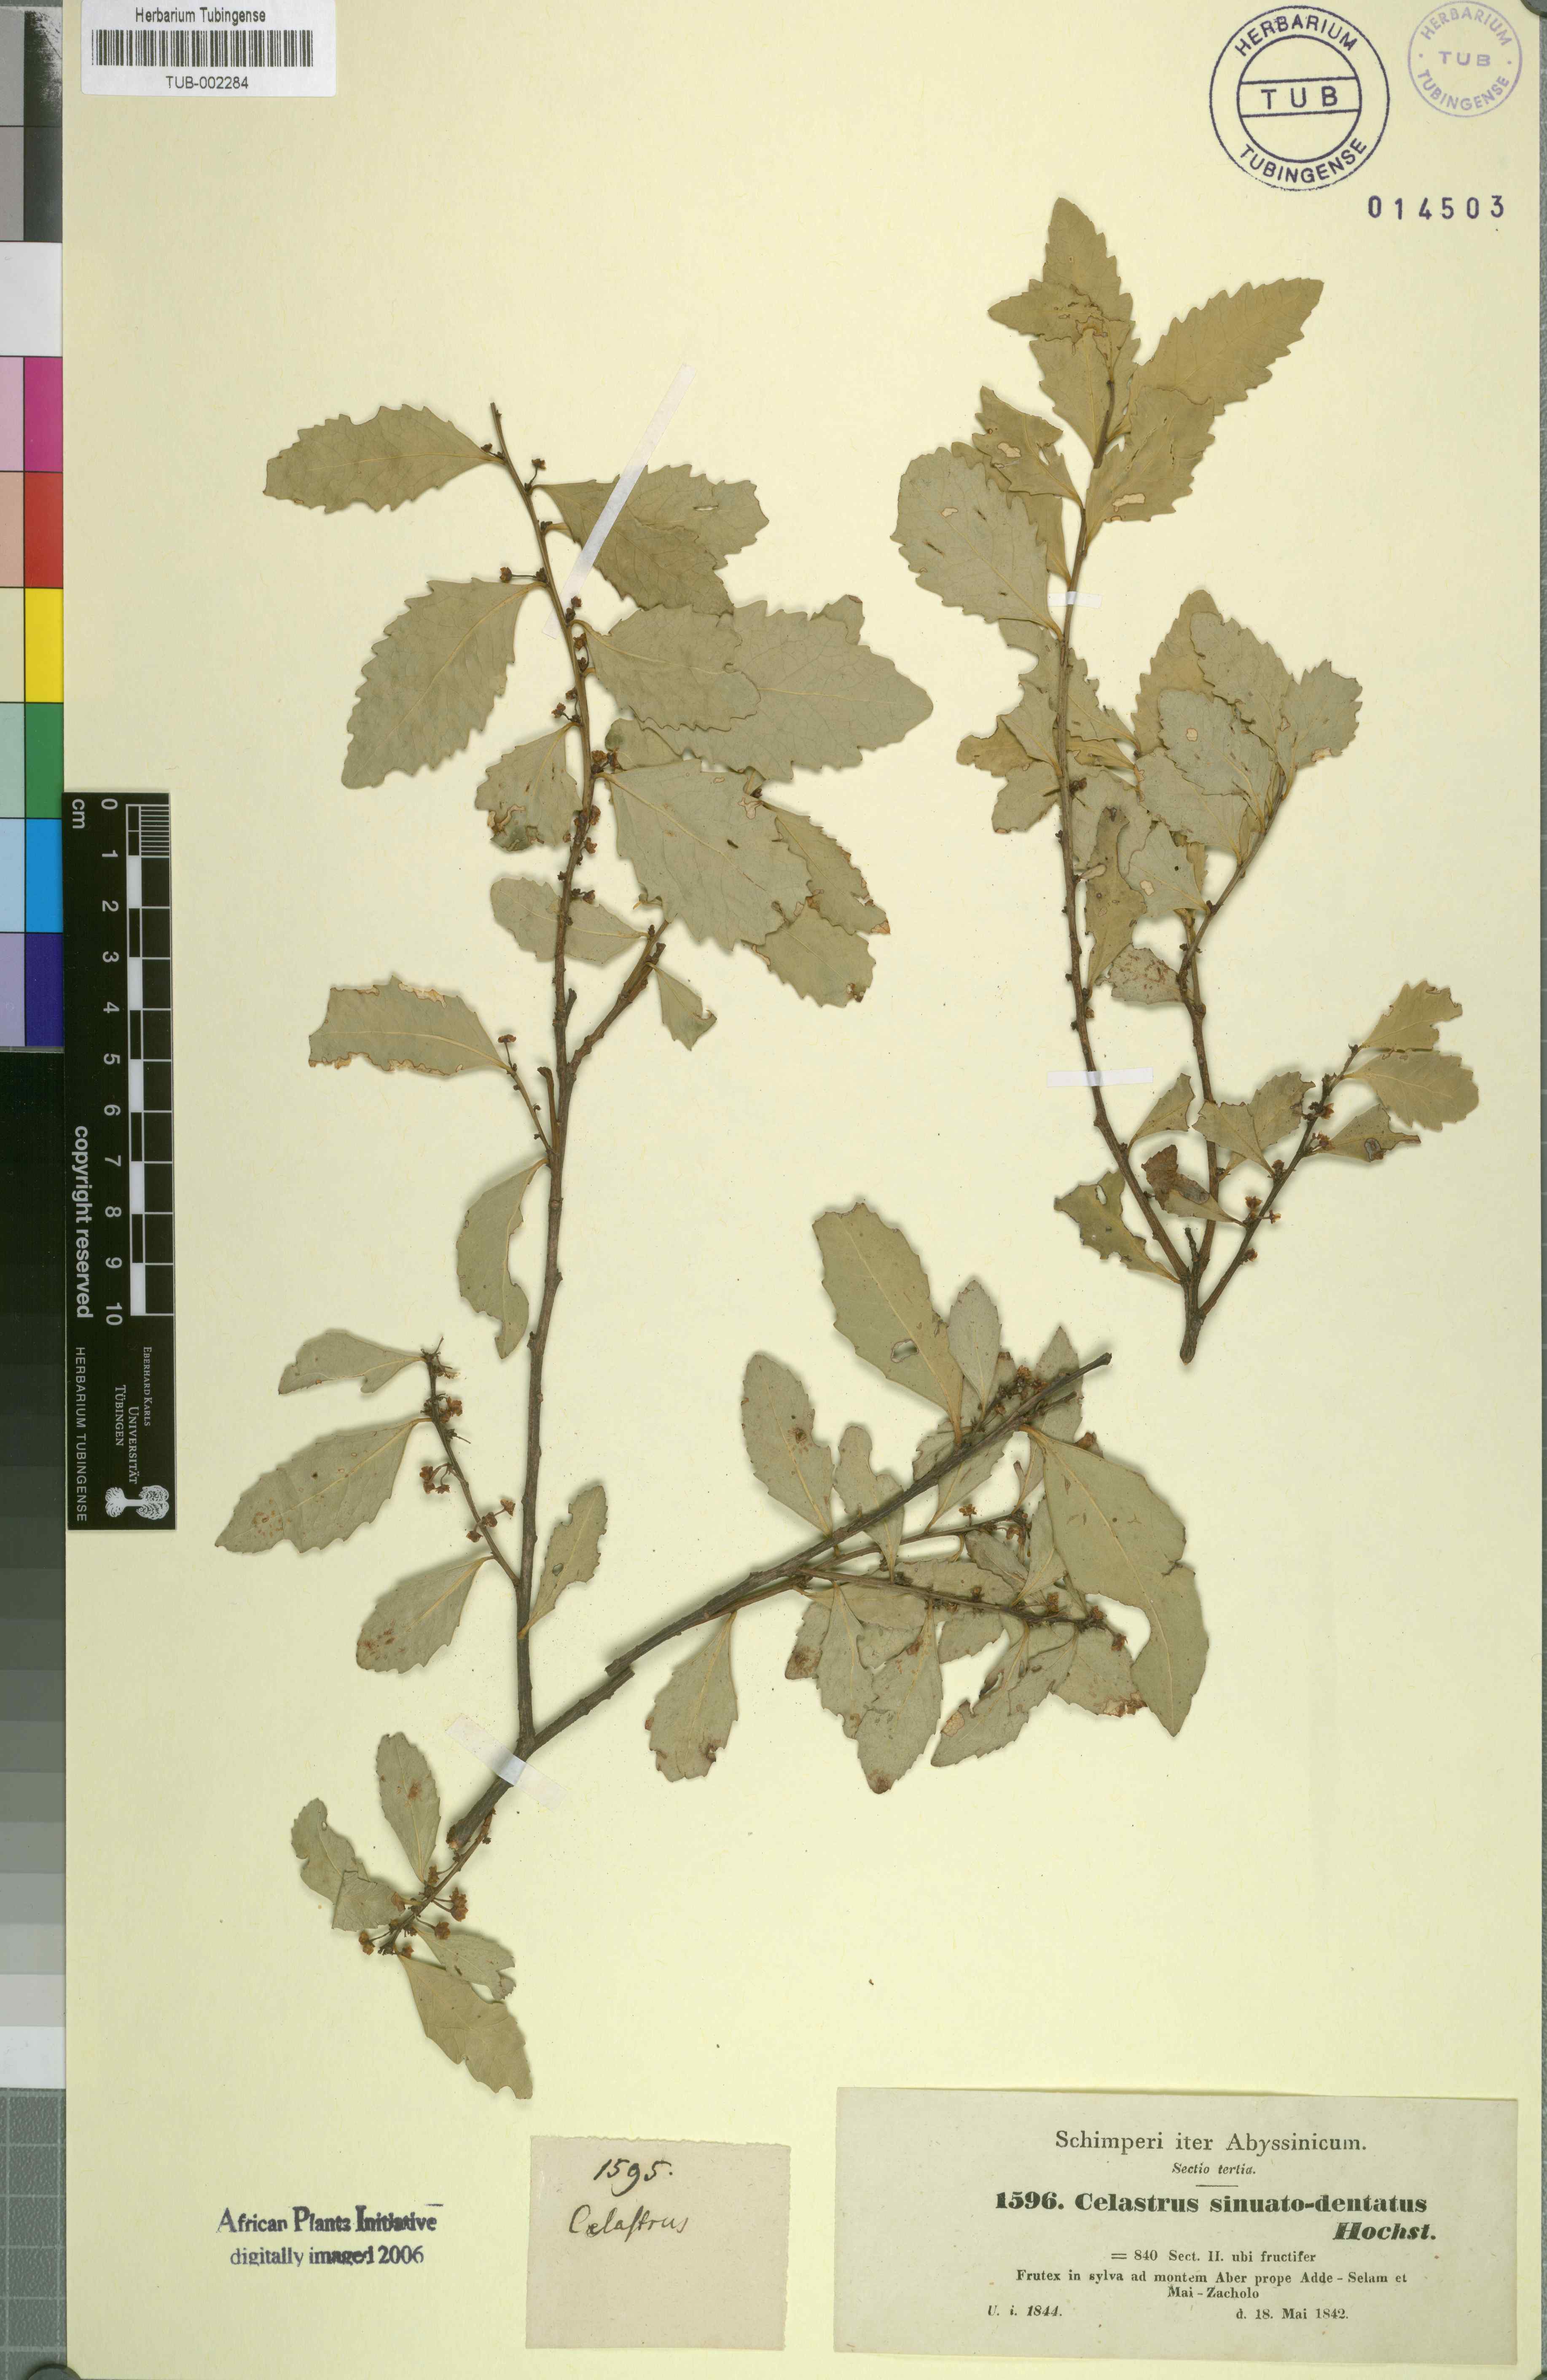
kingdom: Plantae
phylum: Tracheophyta
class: Magnoliopsida
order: Celastrales
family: Celastraceae
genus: Gymnosporia
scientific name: Gymnosporia undata
